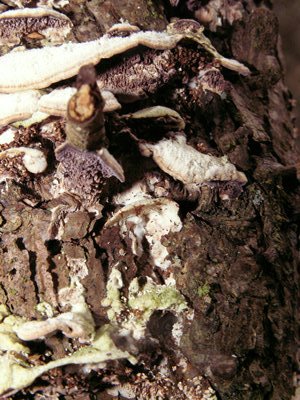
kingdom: Fungi
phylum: Basidiomycota
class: Agaricomycetes
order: Hymenochaetales
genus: Trichaptum
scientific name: Trichaptum fuscoviolaceum
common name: tandet violporesvamp
